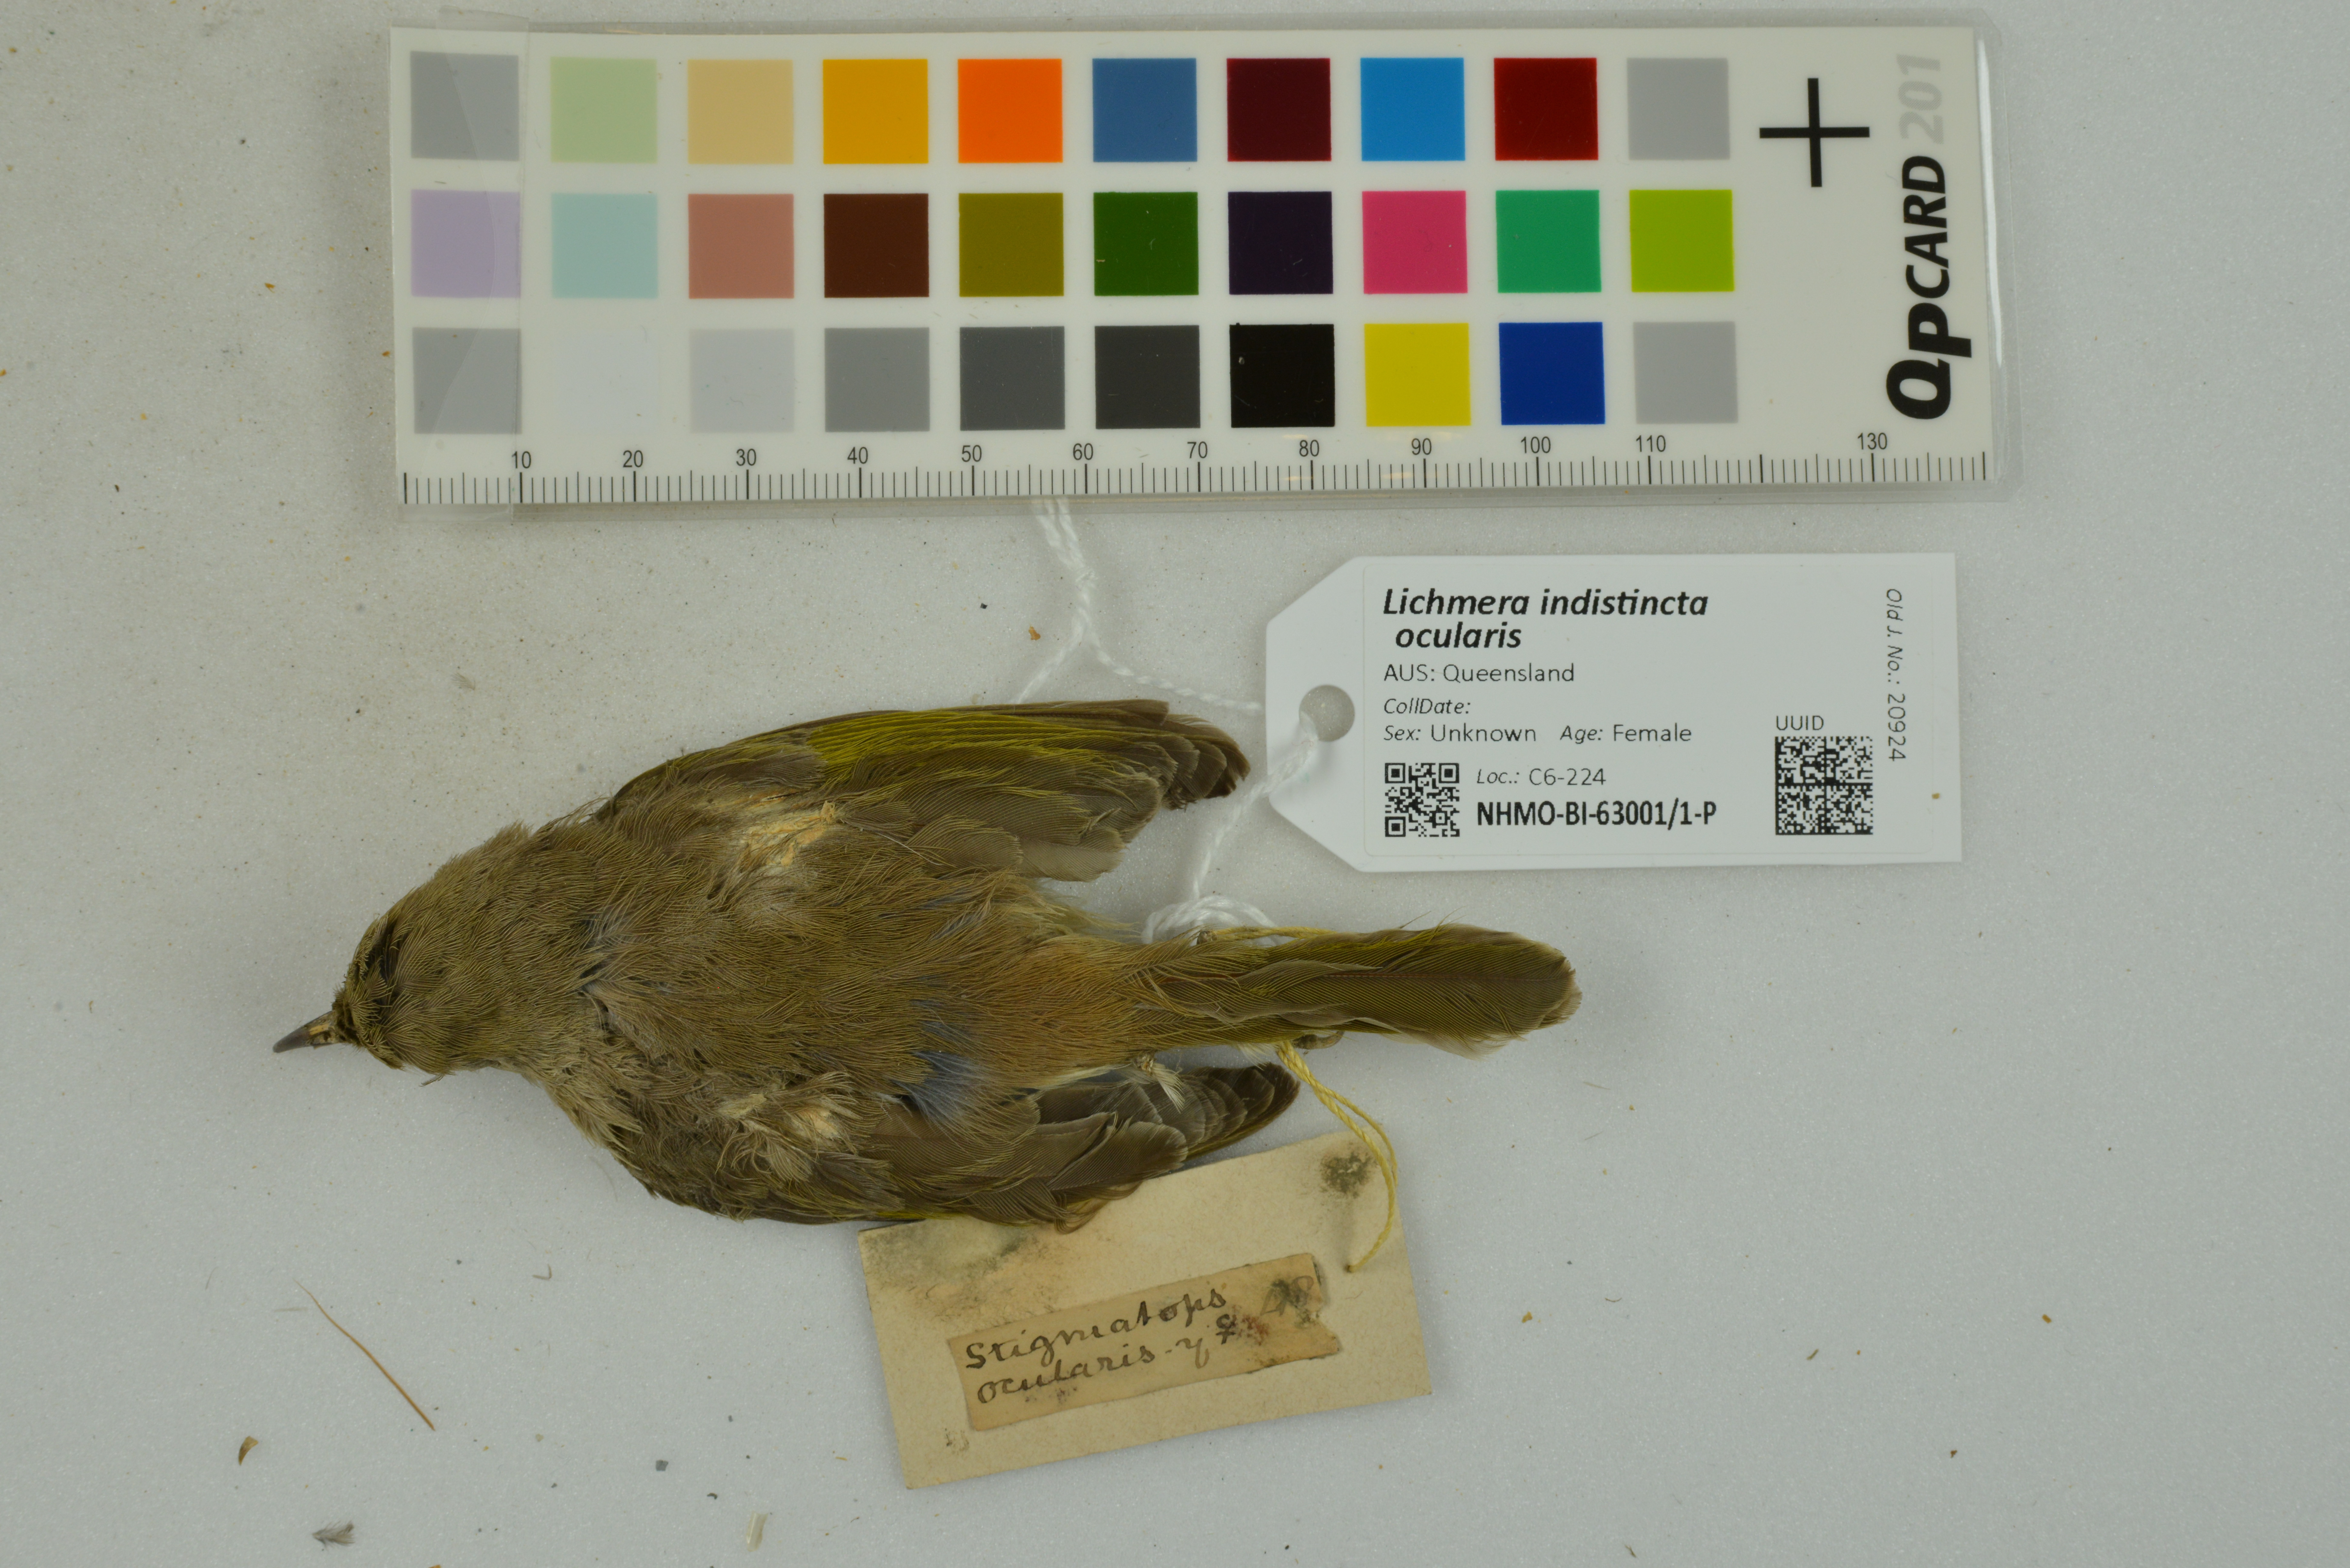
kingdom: Animalia
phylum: Chordata
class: Aves
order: Passeriformes
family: Meliphagidae
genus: Lichmera
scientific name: Lichmera indistincta
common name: Brown honeyeater
